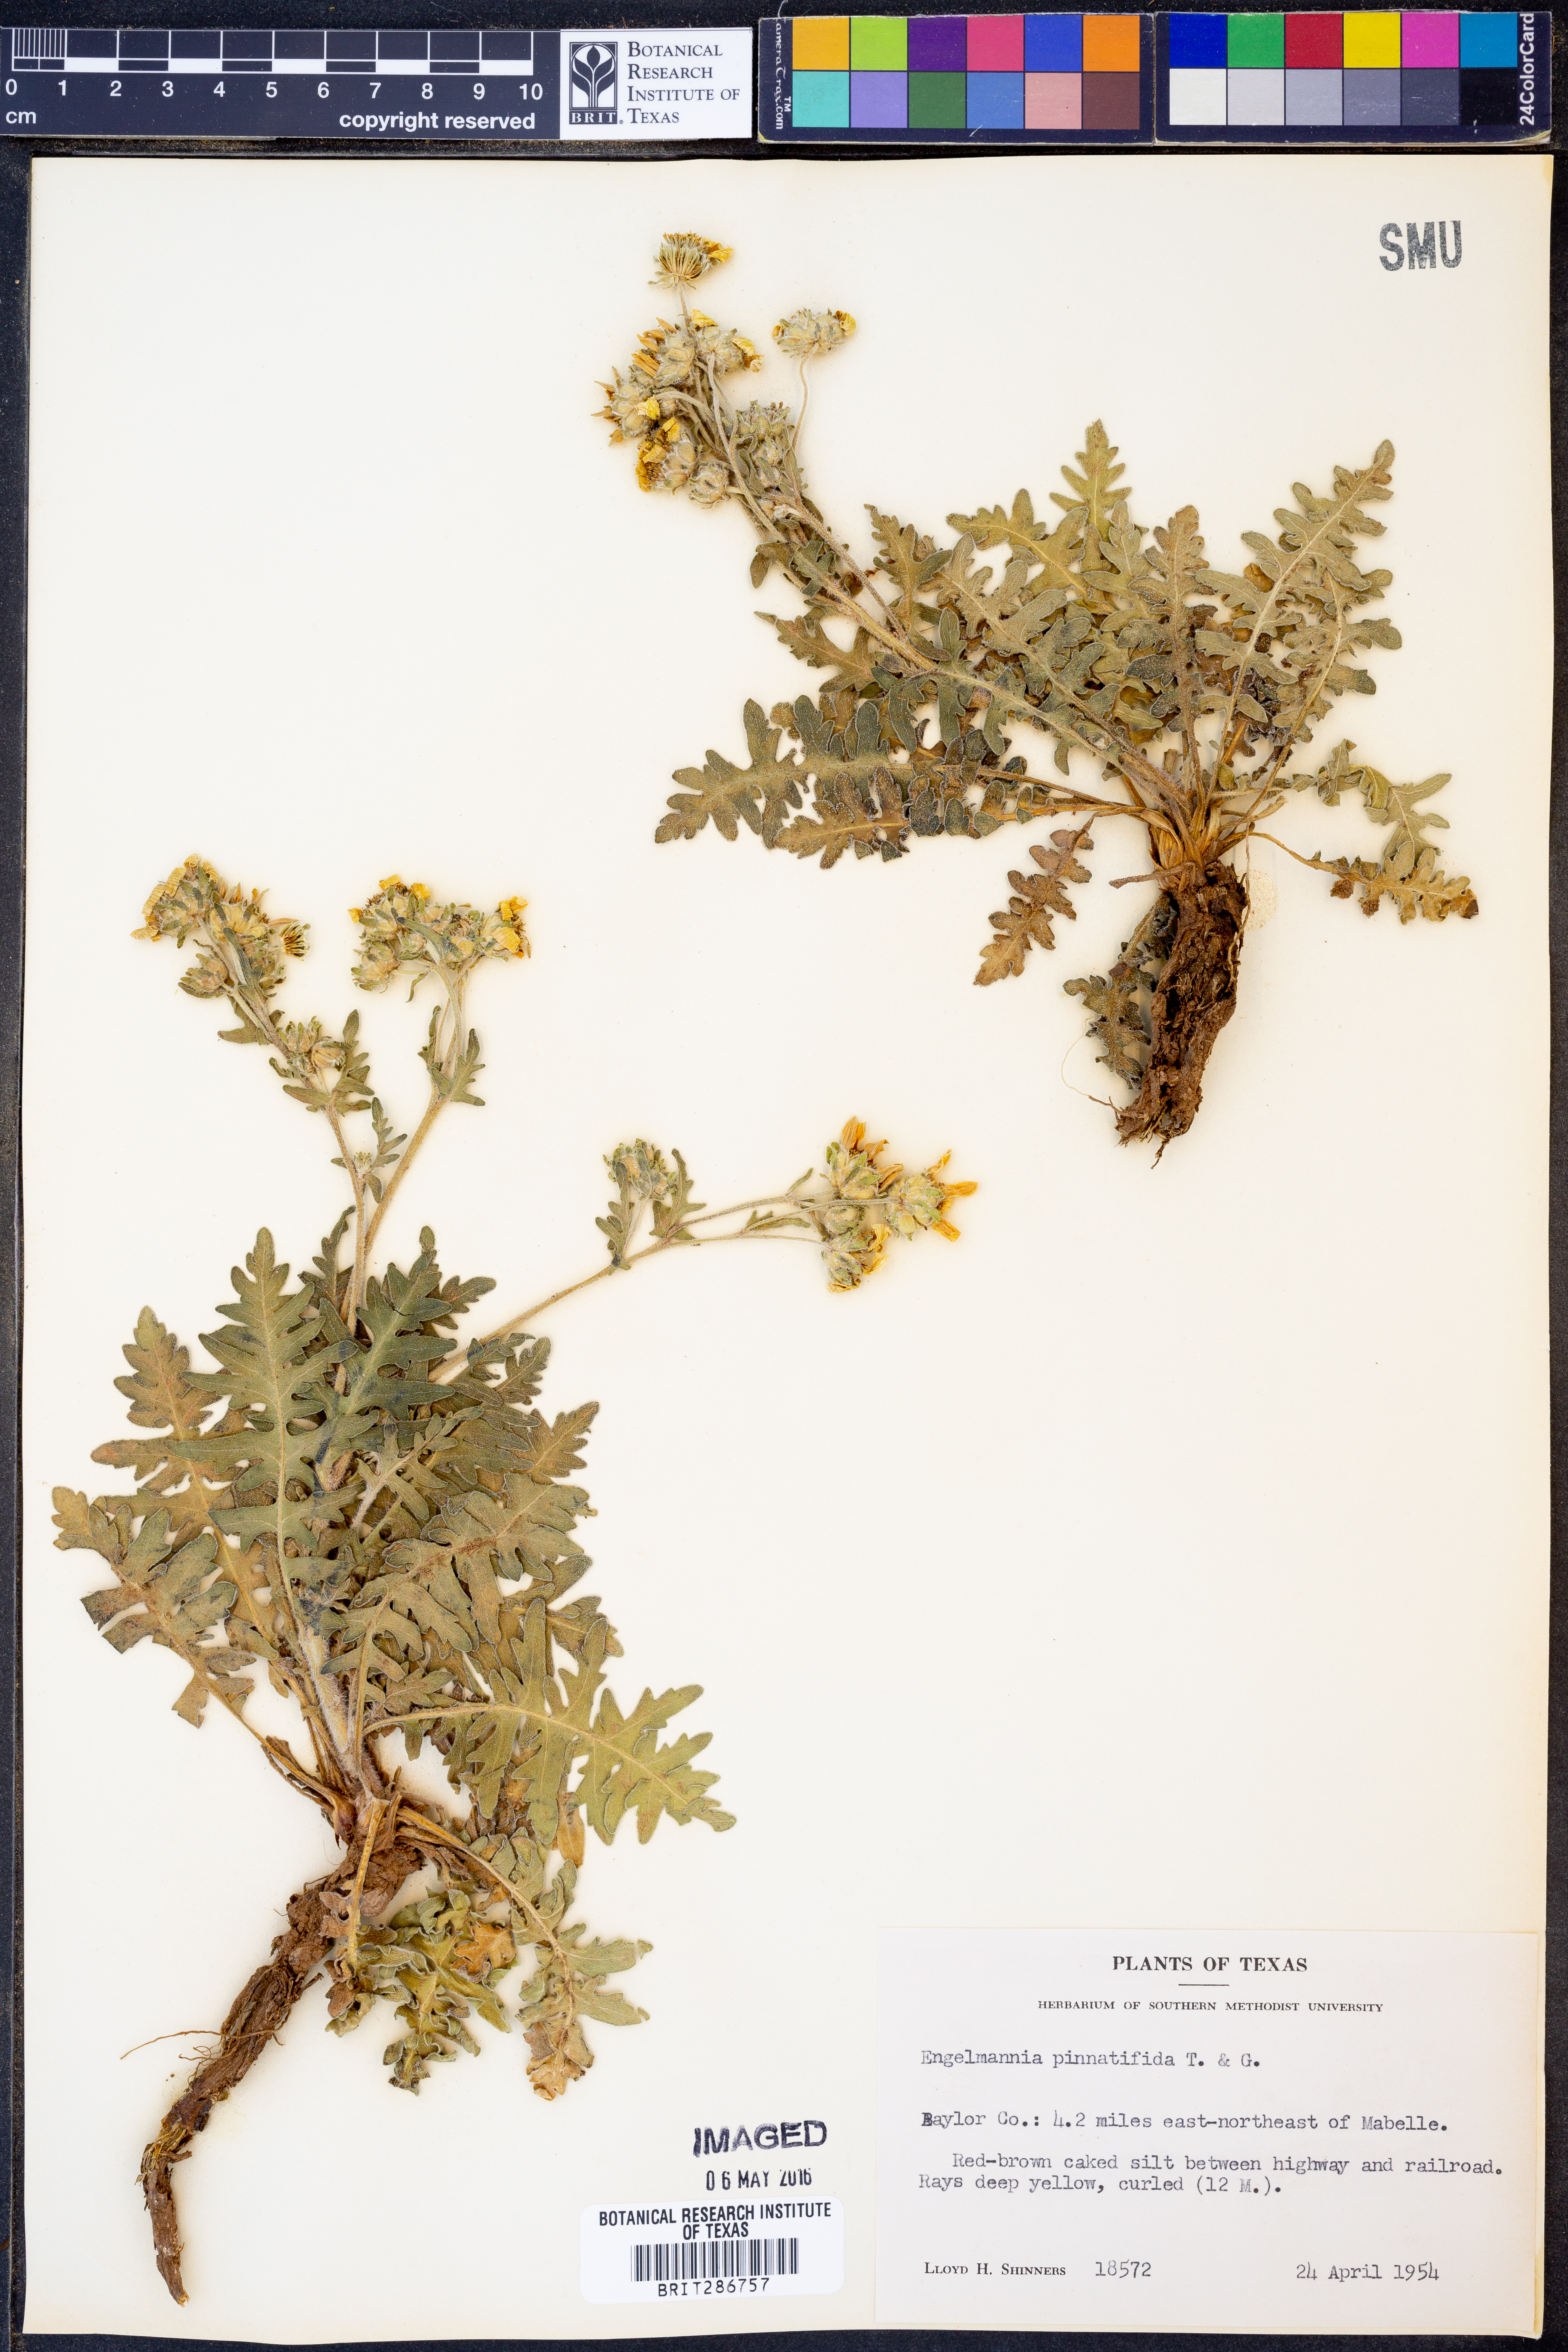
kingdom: Plantae
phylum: Tracheophyta
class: Magnoliopsida
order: Asterales
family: Asteraceae
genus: Engelmannia
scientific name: Engelmannia peristenia
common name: Engelmann's daisy
